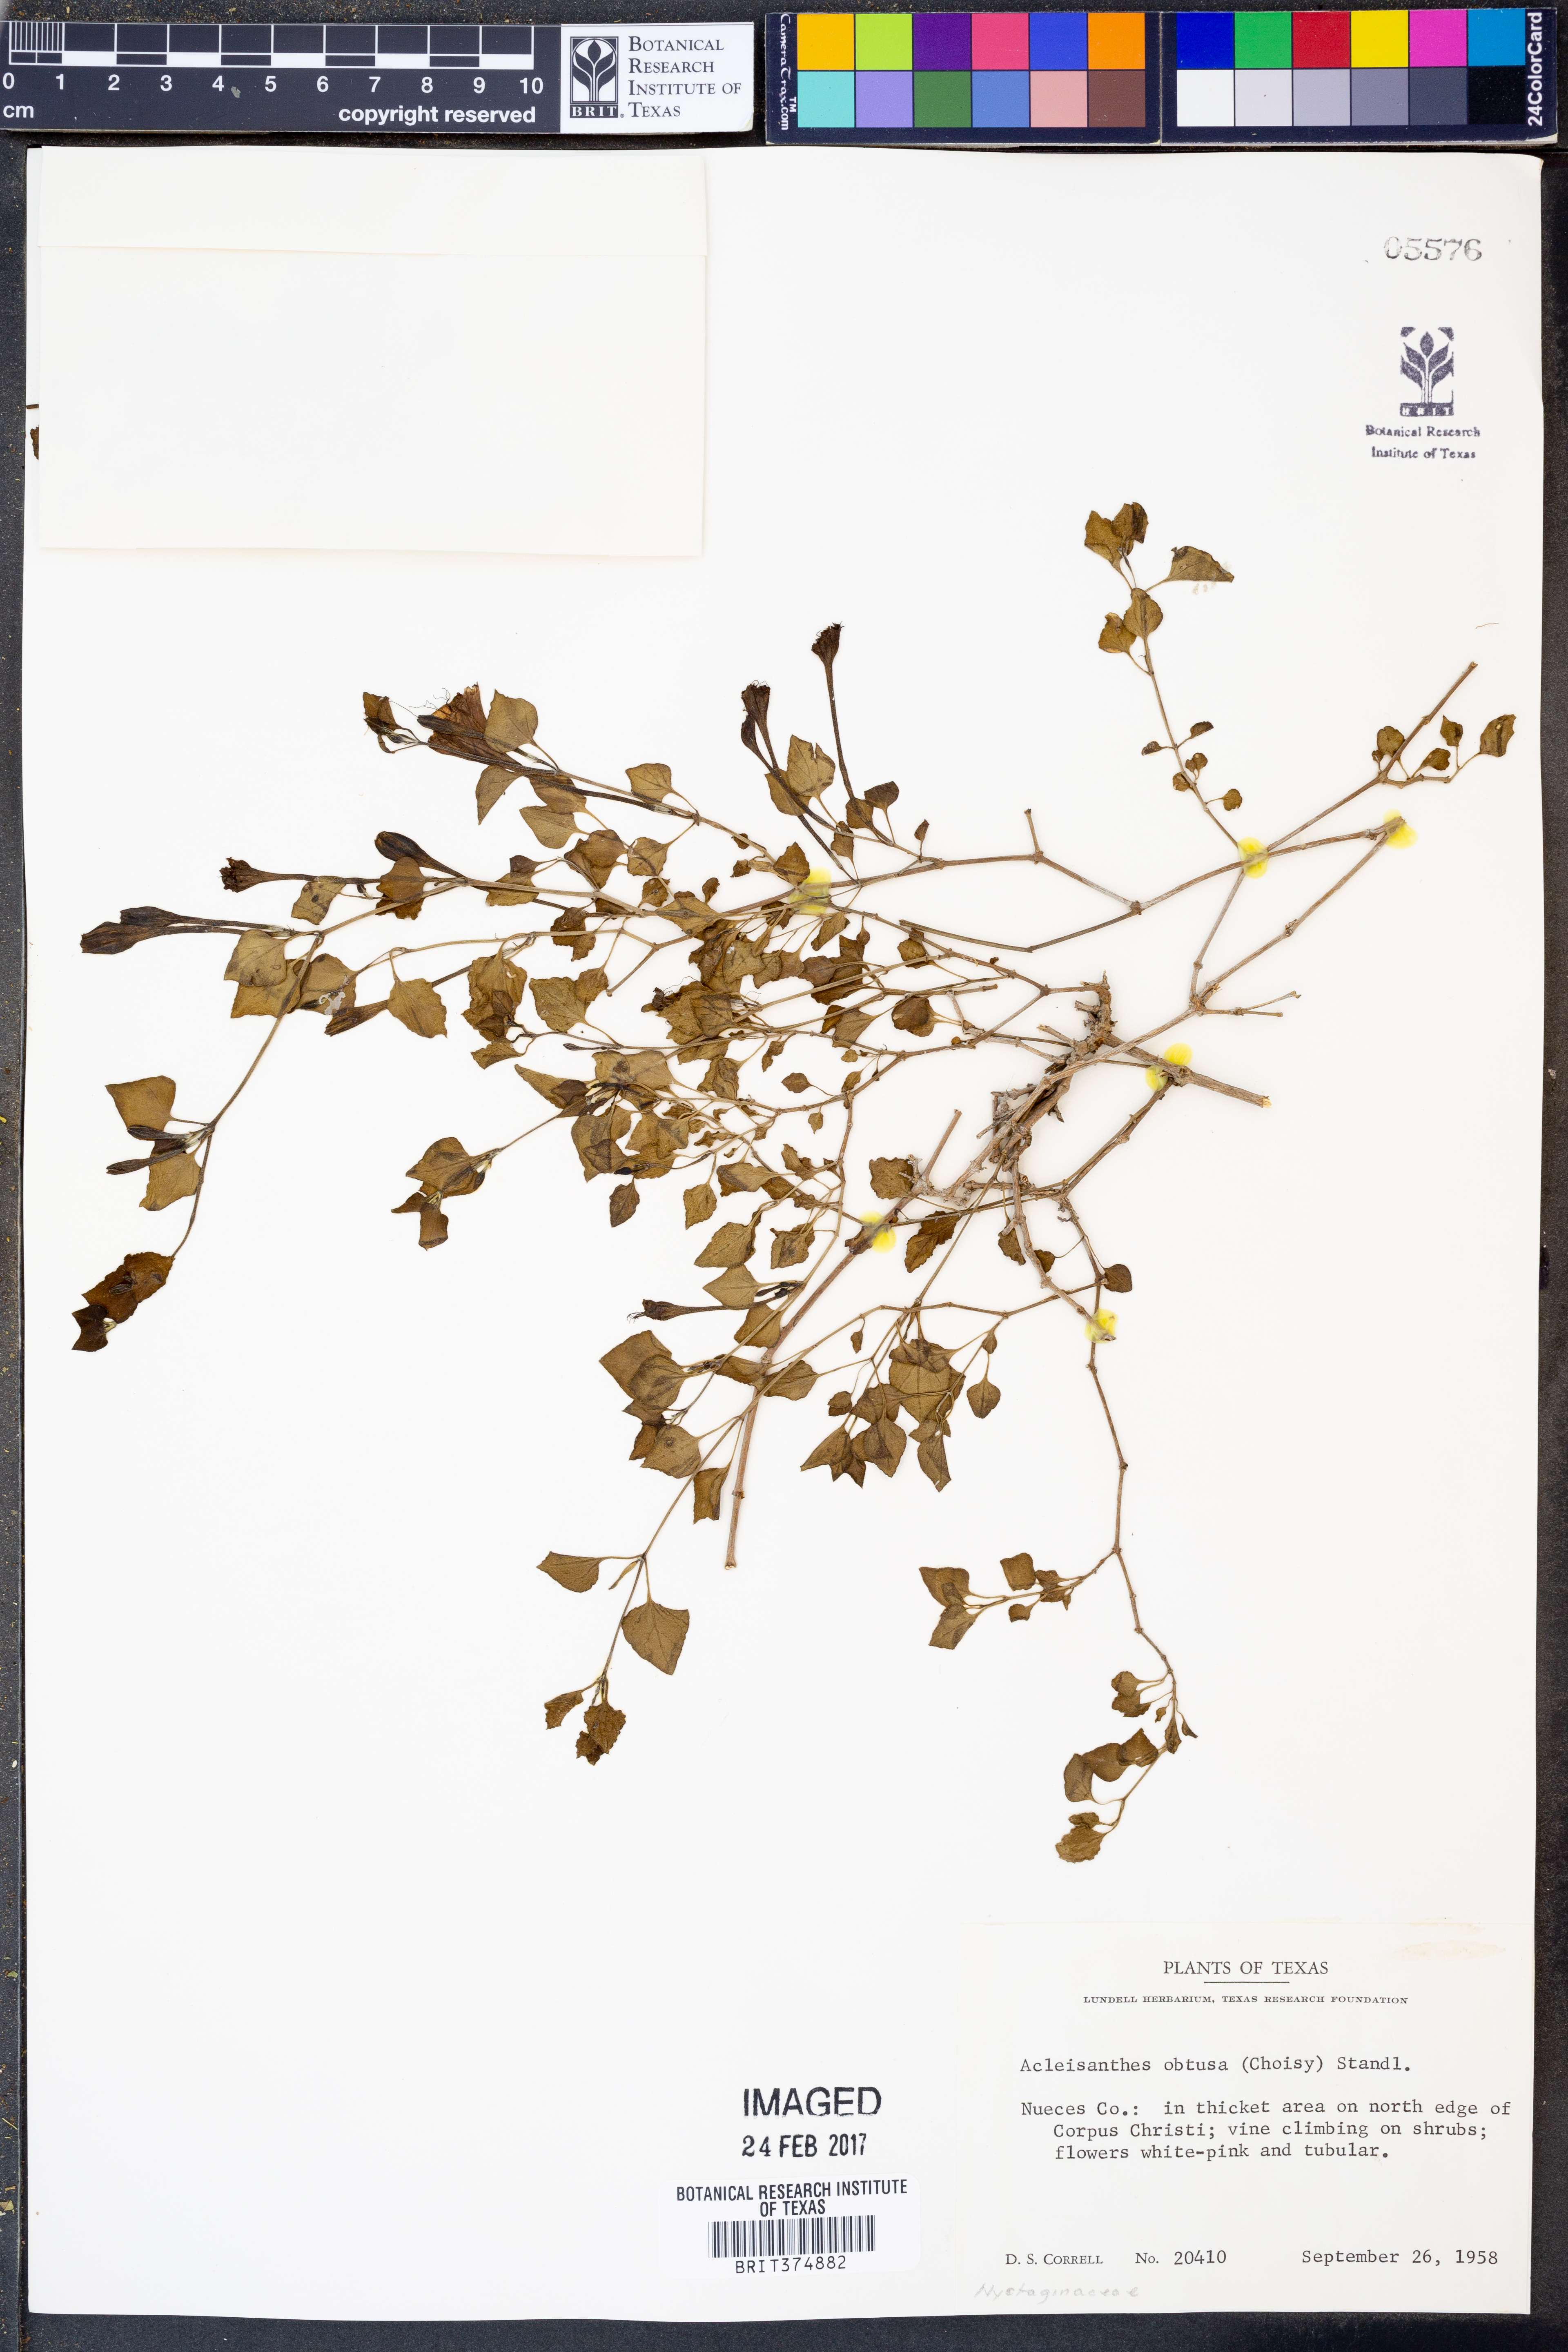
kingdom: Plantae
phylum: Tracheophyta
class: Magnoliopsida
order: Caryophyllales
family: Nyctaginaceae
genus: Acleisanthes
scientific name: Acleisanthes obtusa
